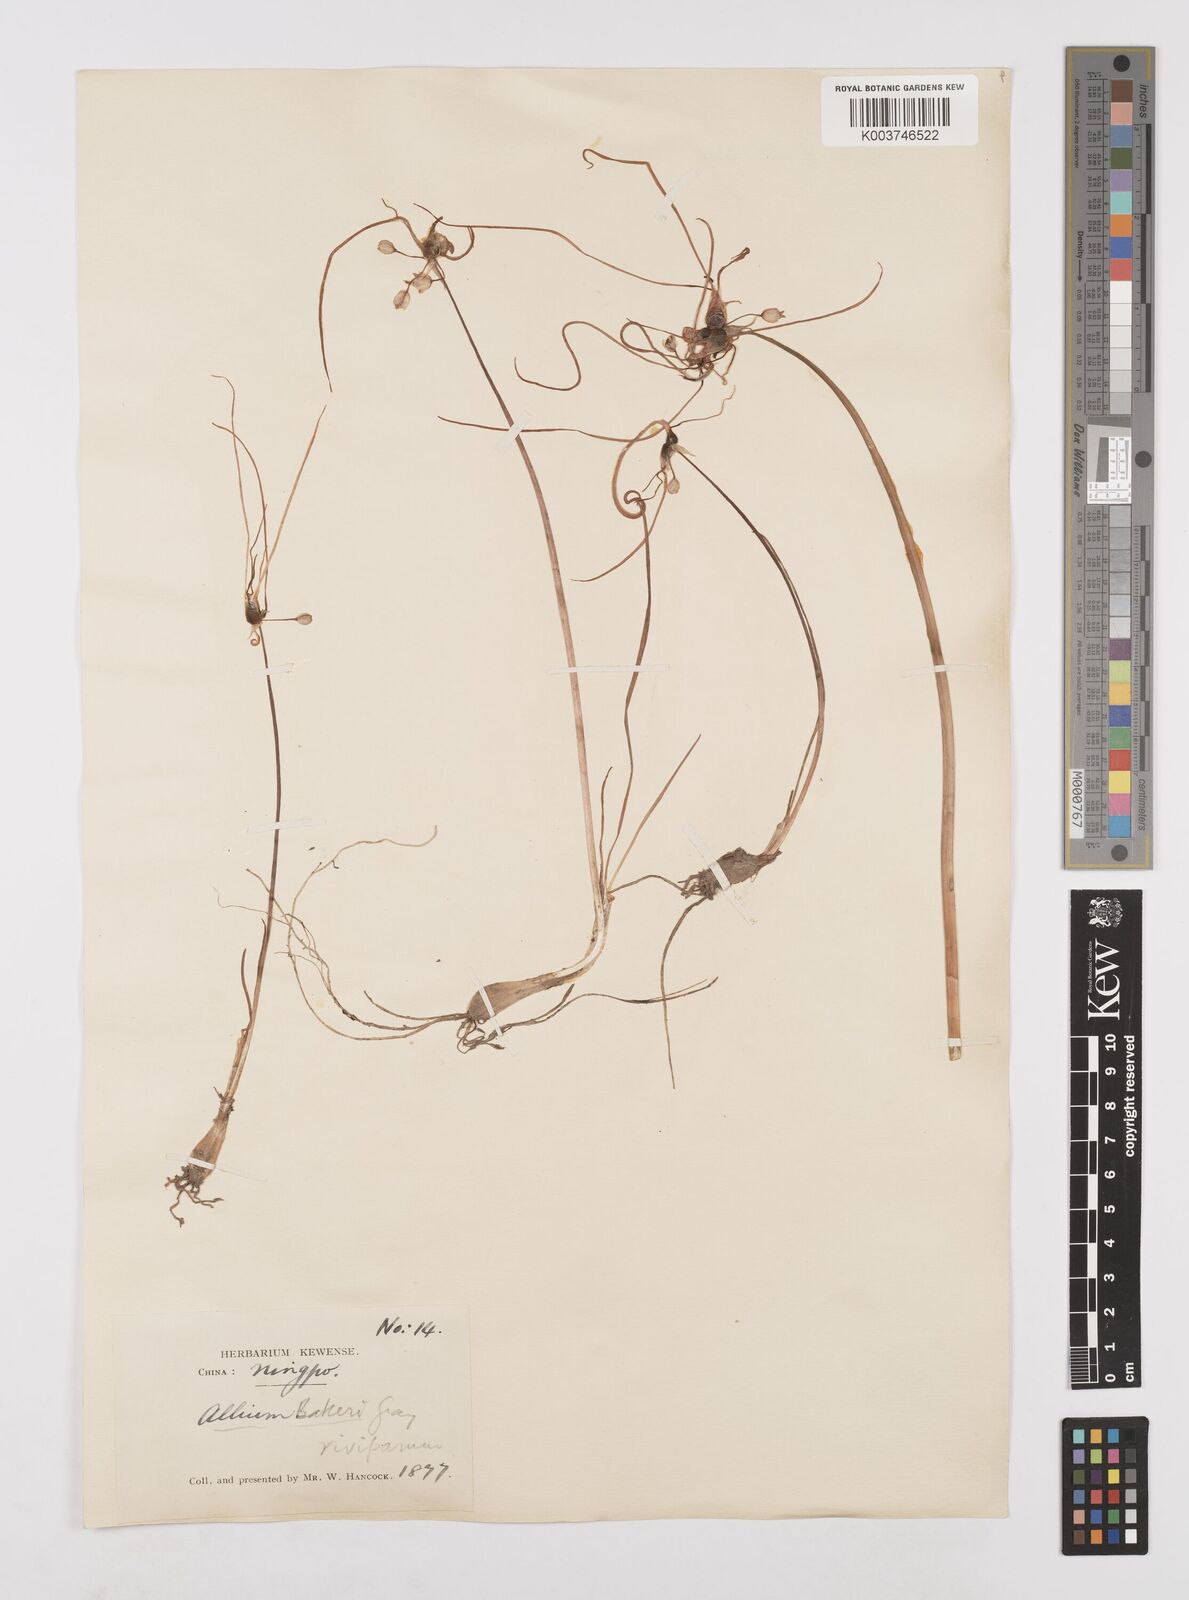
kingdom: Plantae
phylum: Tracheophyta
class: Liliopsida
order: Asparagales
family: Amaryllidaceae
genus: Allium
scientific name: Allium chinense
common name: Japanese scallion
